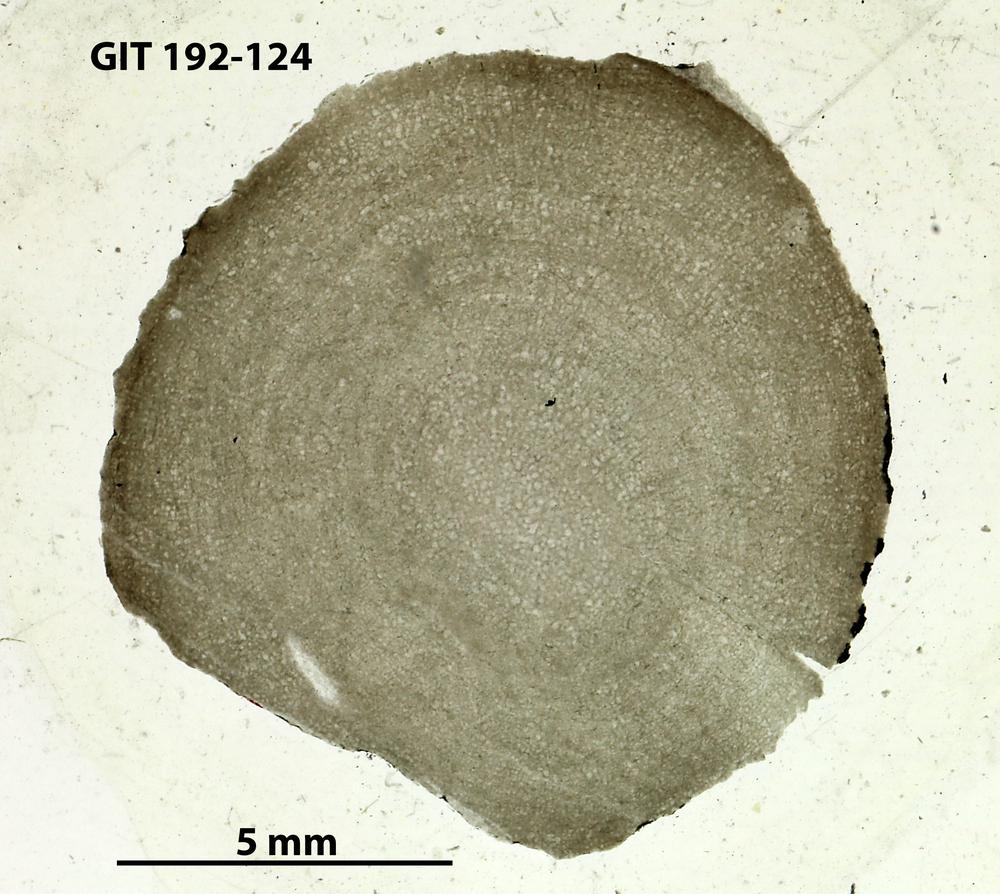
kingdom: Animalia
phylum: Porifera
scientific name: Porifera
